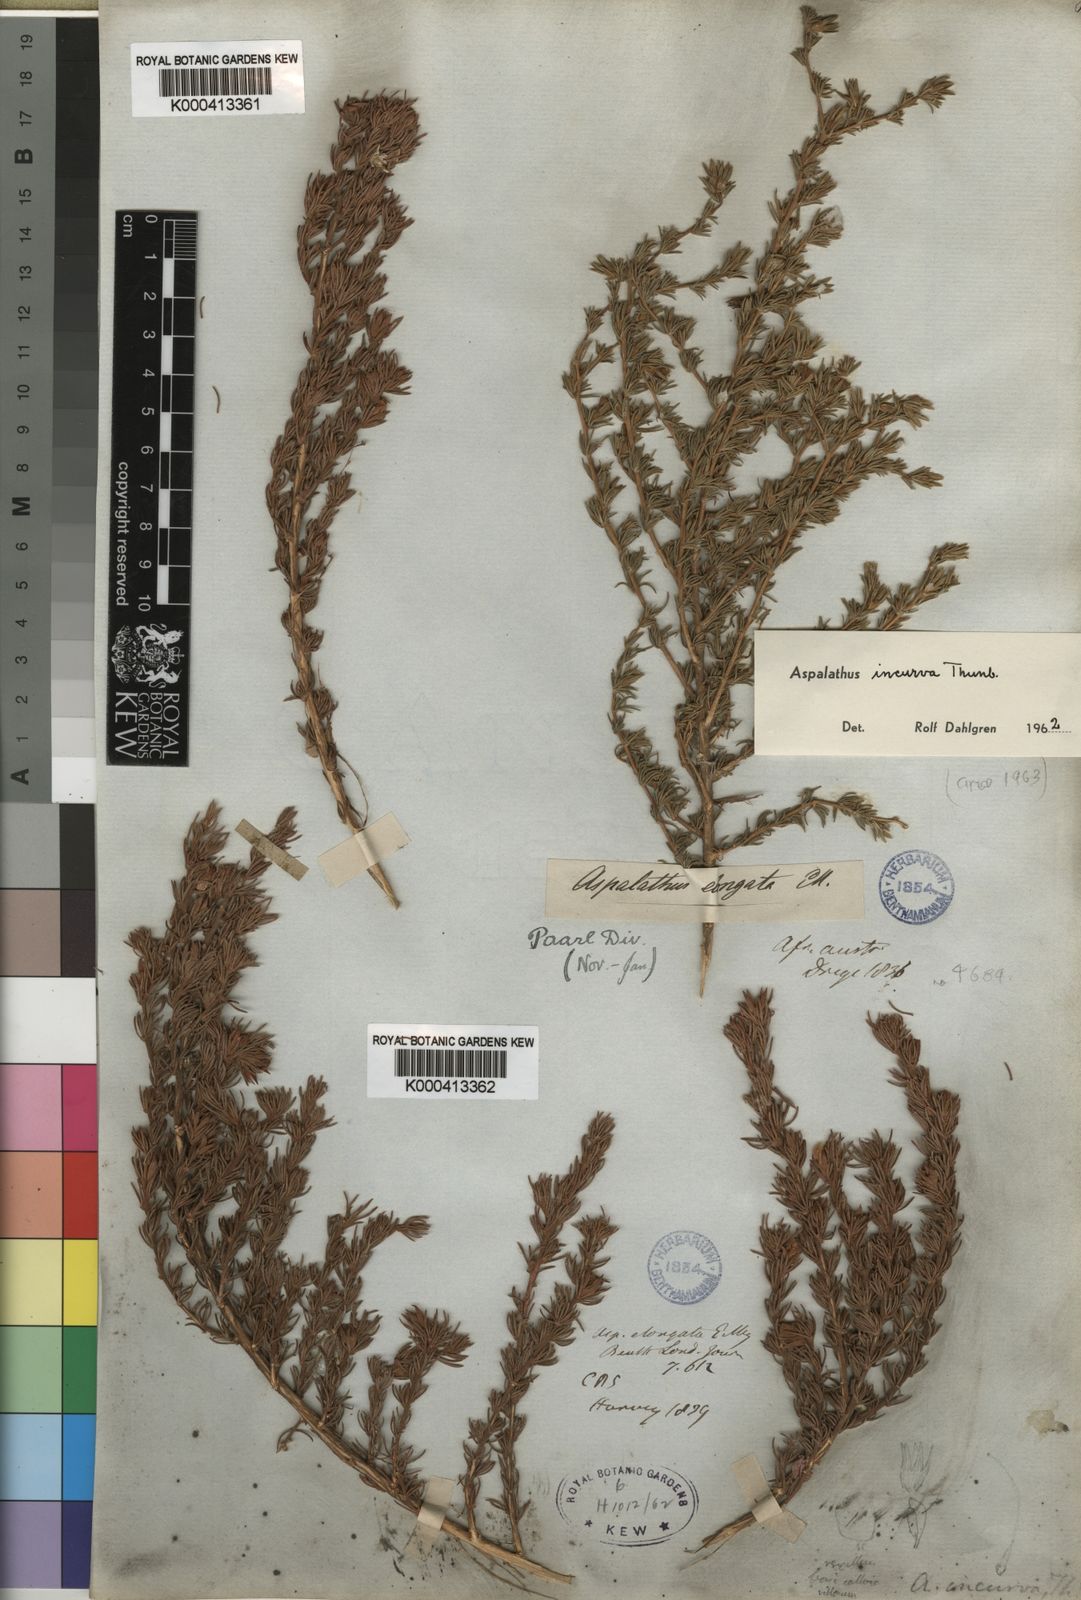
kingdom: Plantae
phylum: Tracheophyta
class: Magnoliopsida
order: Fabales
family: Fabaceae
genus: Aspalathus
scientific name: Aspalathus incurva
